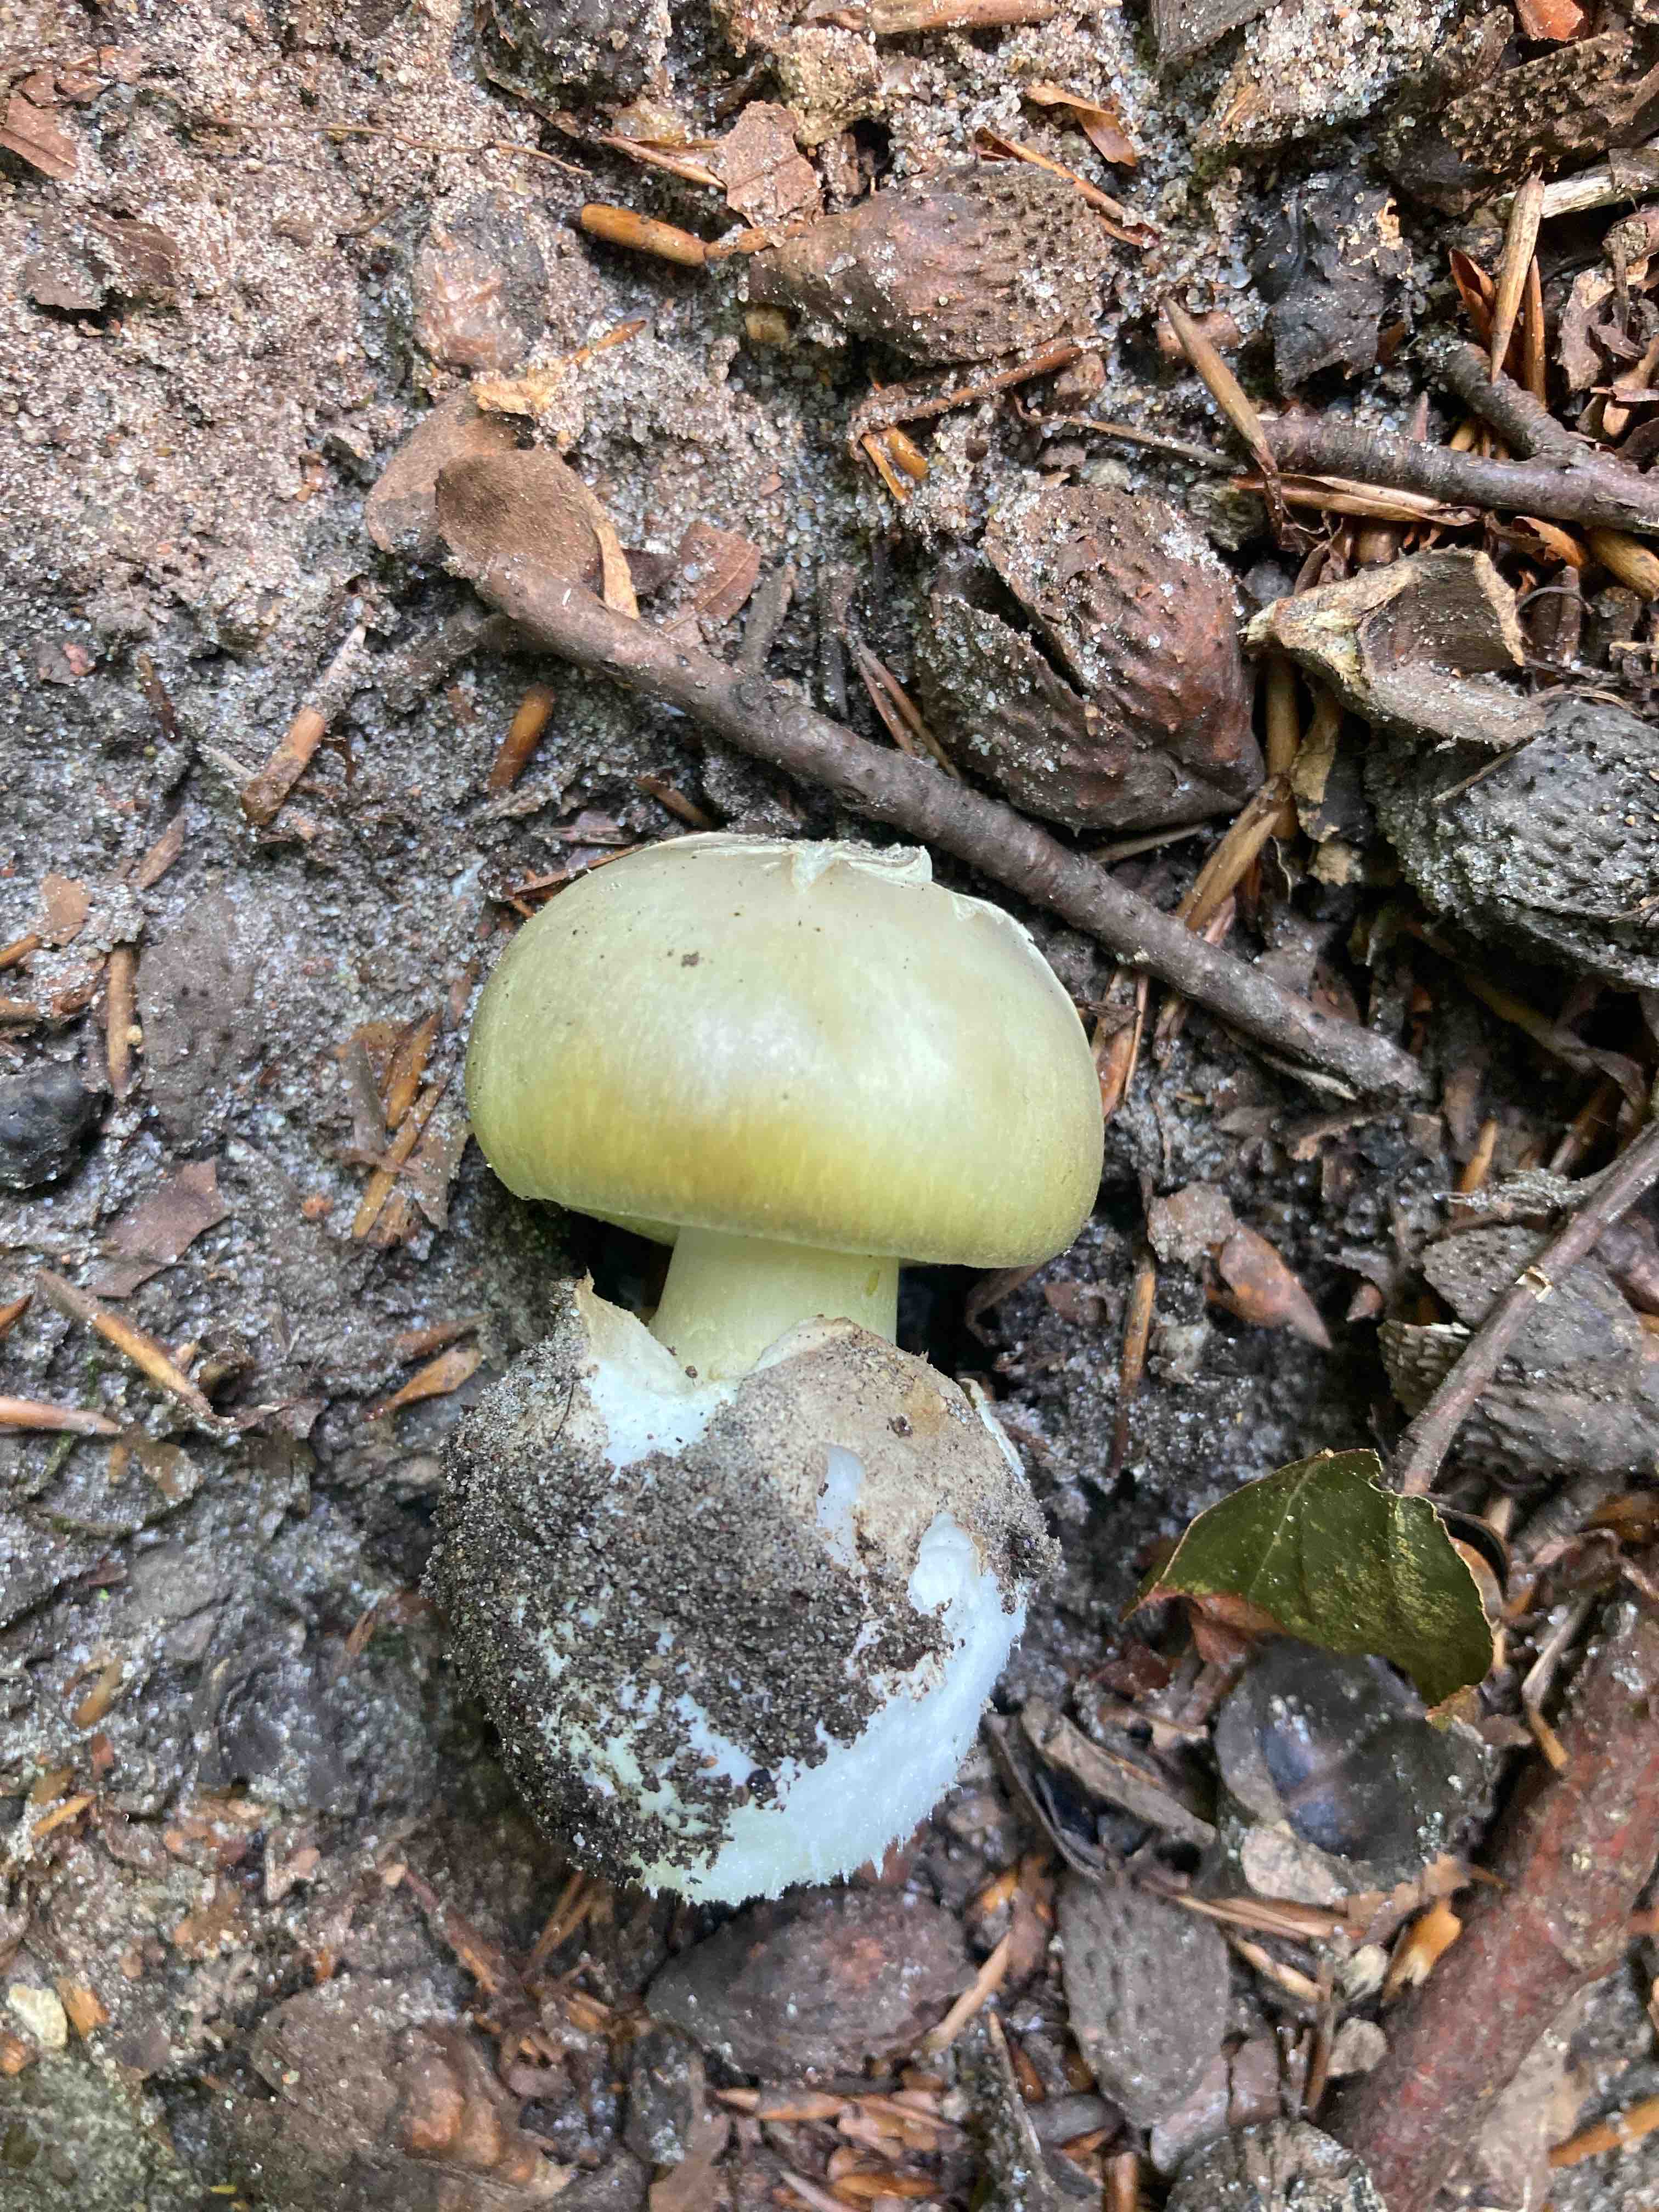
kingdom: Fungi
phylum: Basidiomycota
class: Agaricomycetes
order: Agaricales
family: Amanitaceae
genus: Amanita
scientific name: Amanita phalloides
